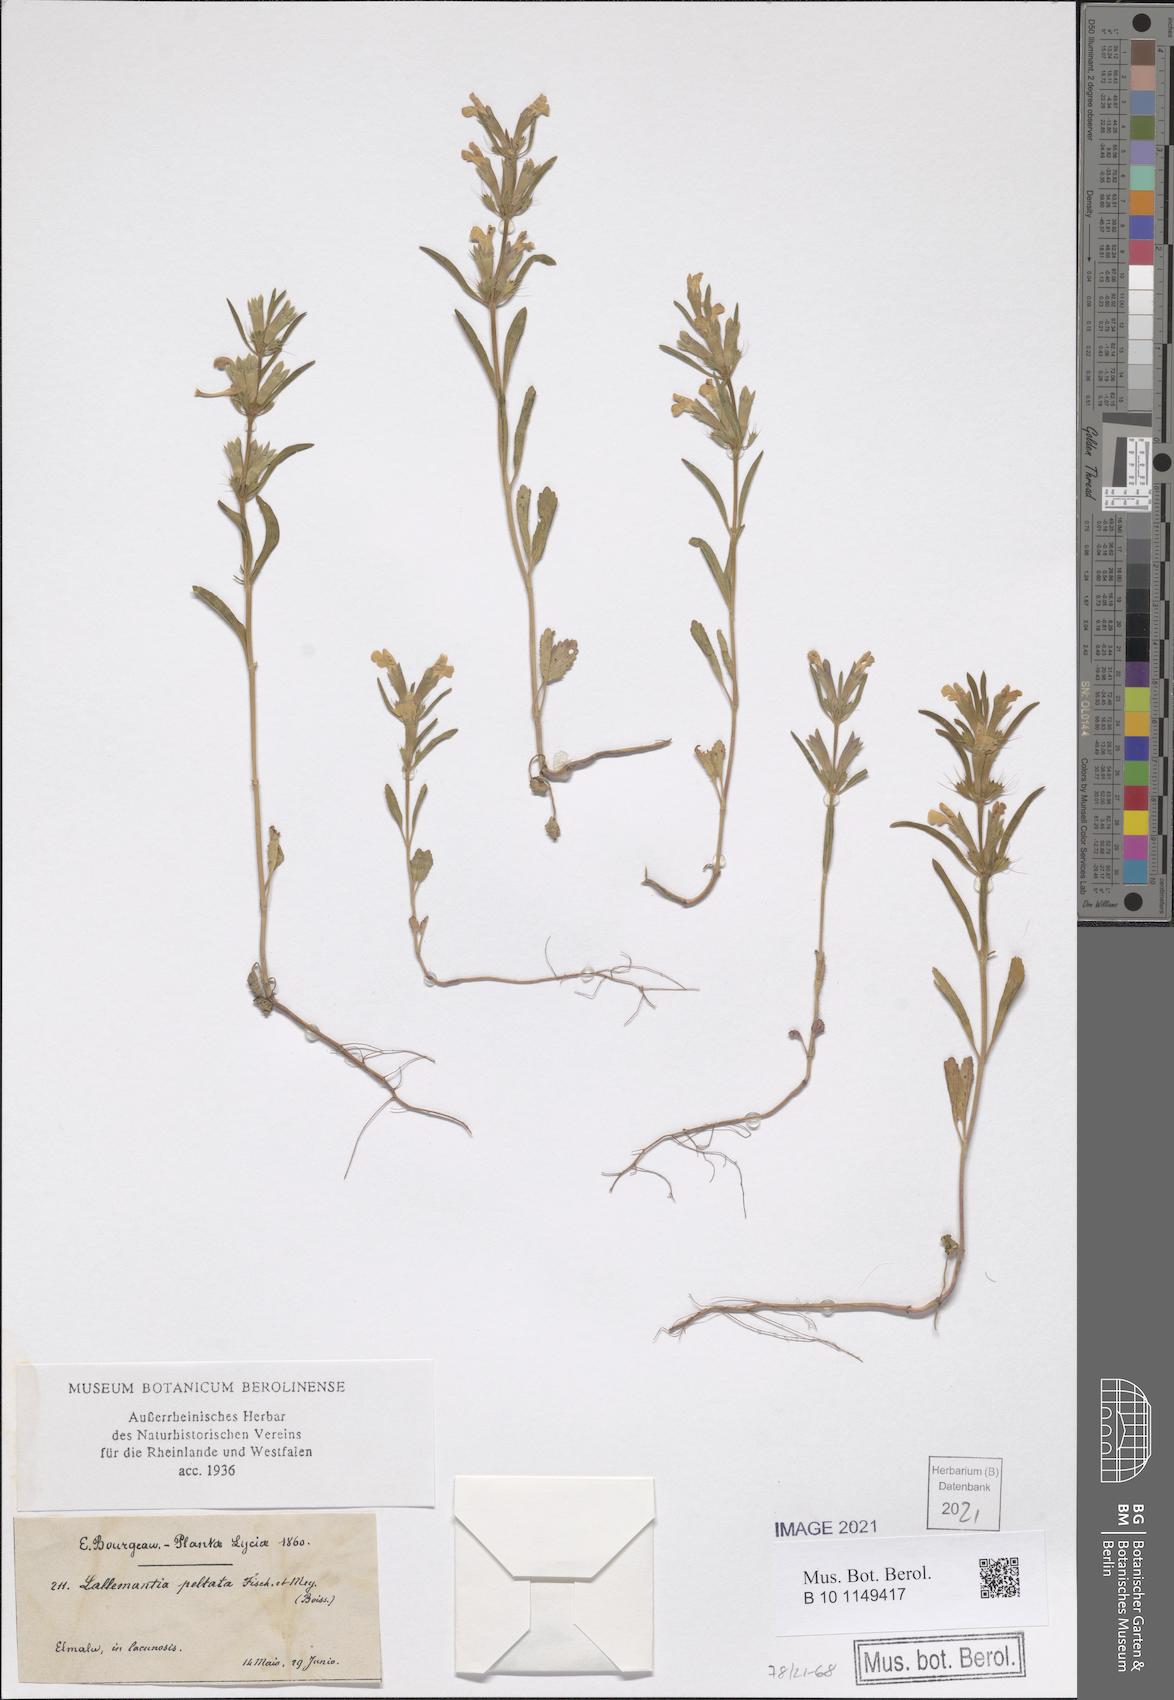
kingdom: Plantae
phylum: Tracheophyta
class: Magnoliopsida
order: Lamiales
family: Lamiaceae
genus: Lallemantia
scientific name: Lallemantia peltata
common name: Lion's heart
